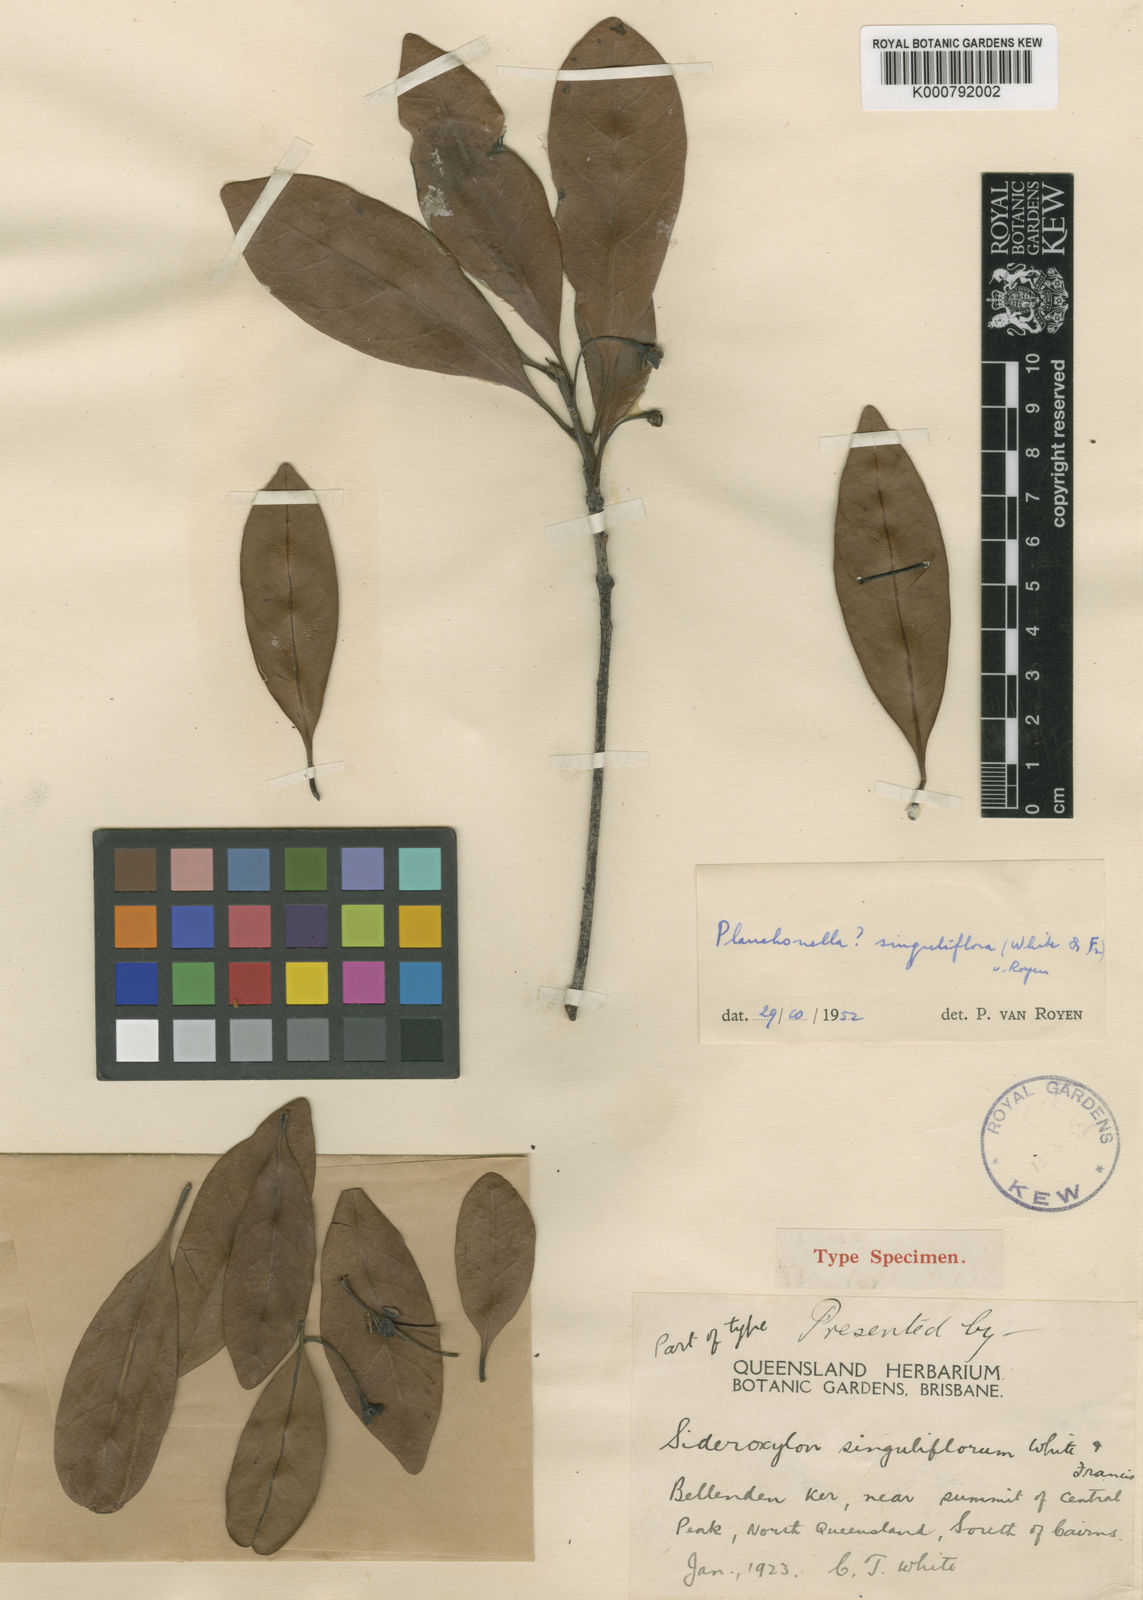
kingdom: Plantae
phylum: Tracheophyta
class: Magnoliopsida
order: Ericales
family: Sapotaceae
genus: Pleioluma
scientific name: Pleioluma singuliflora
